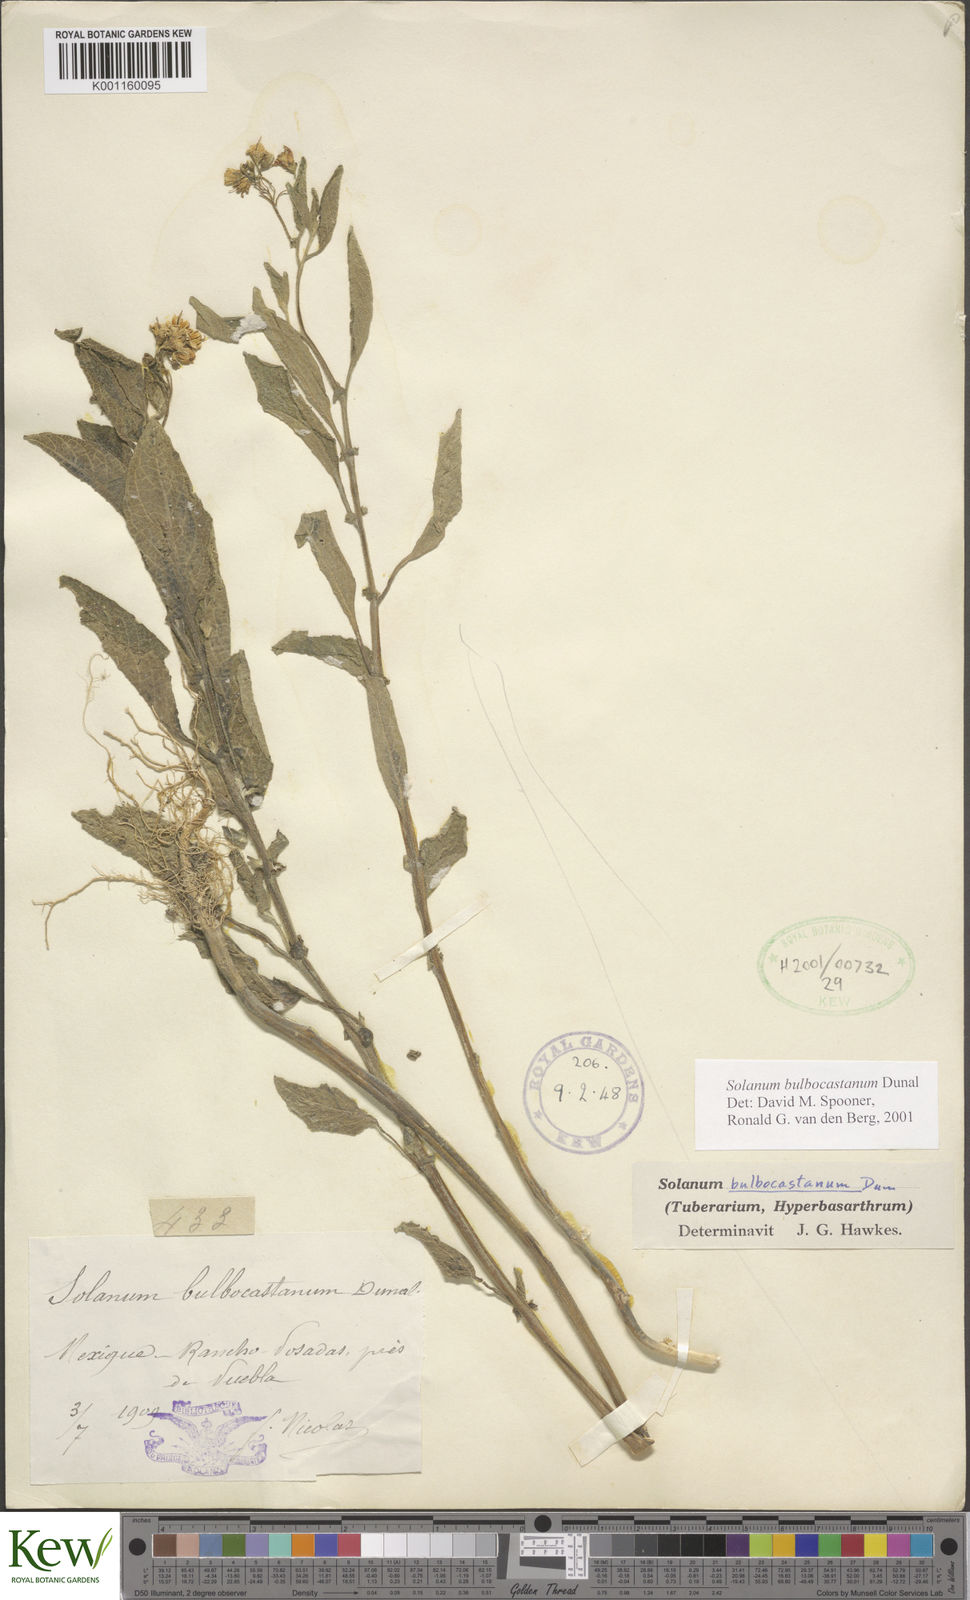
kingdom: Plantae
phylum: Tracheophyta
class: Magnoliopsida
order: Solanales
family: Solanaceae
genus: Solanum
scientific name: Solanum bulbocastanum
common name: Ornamental nightshade
